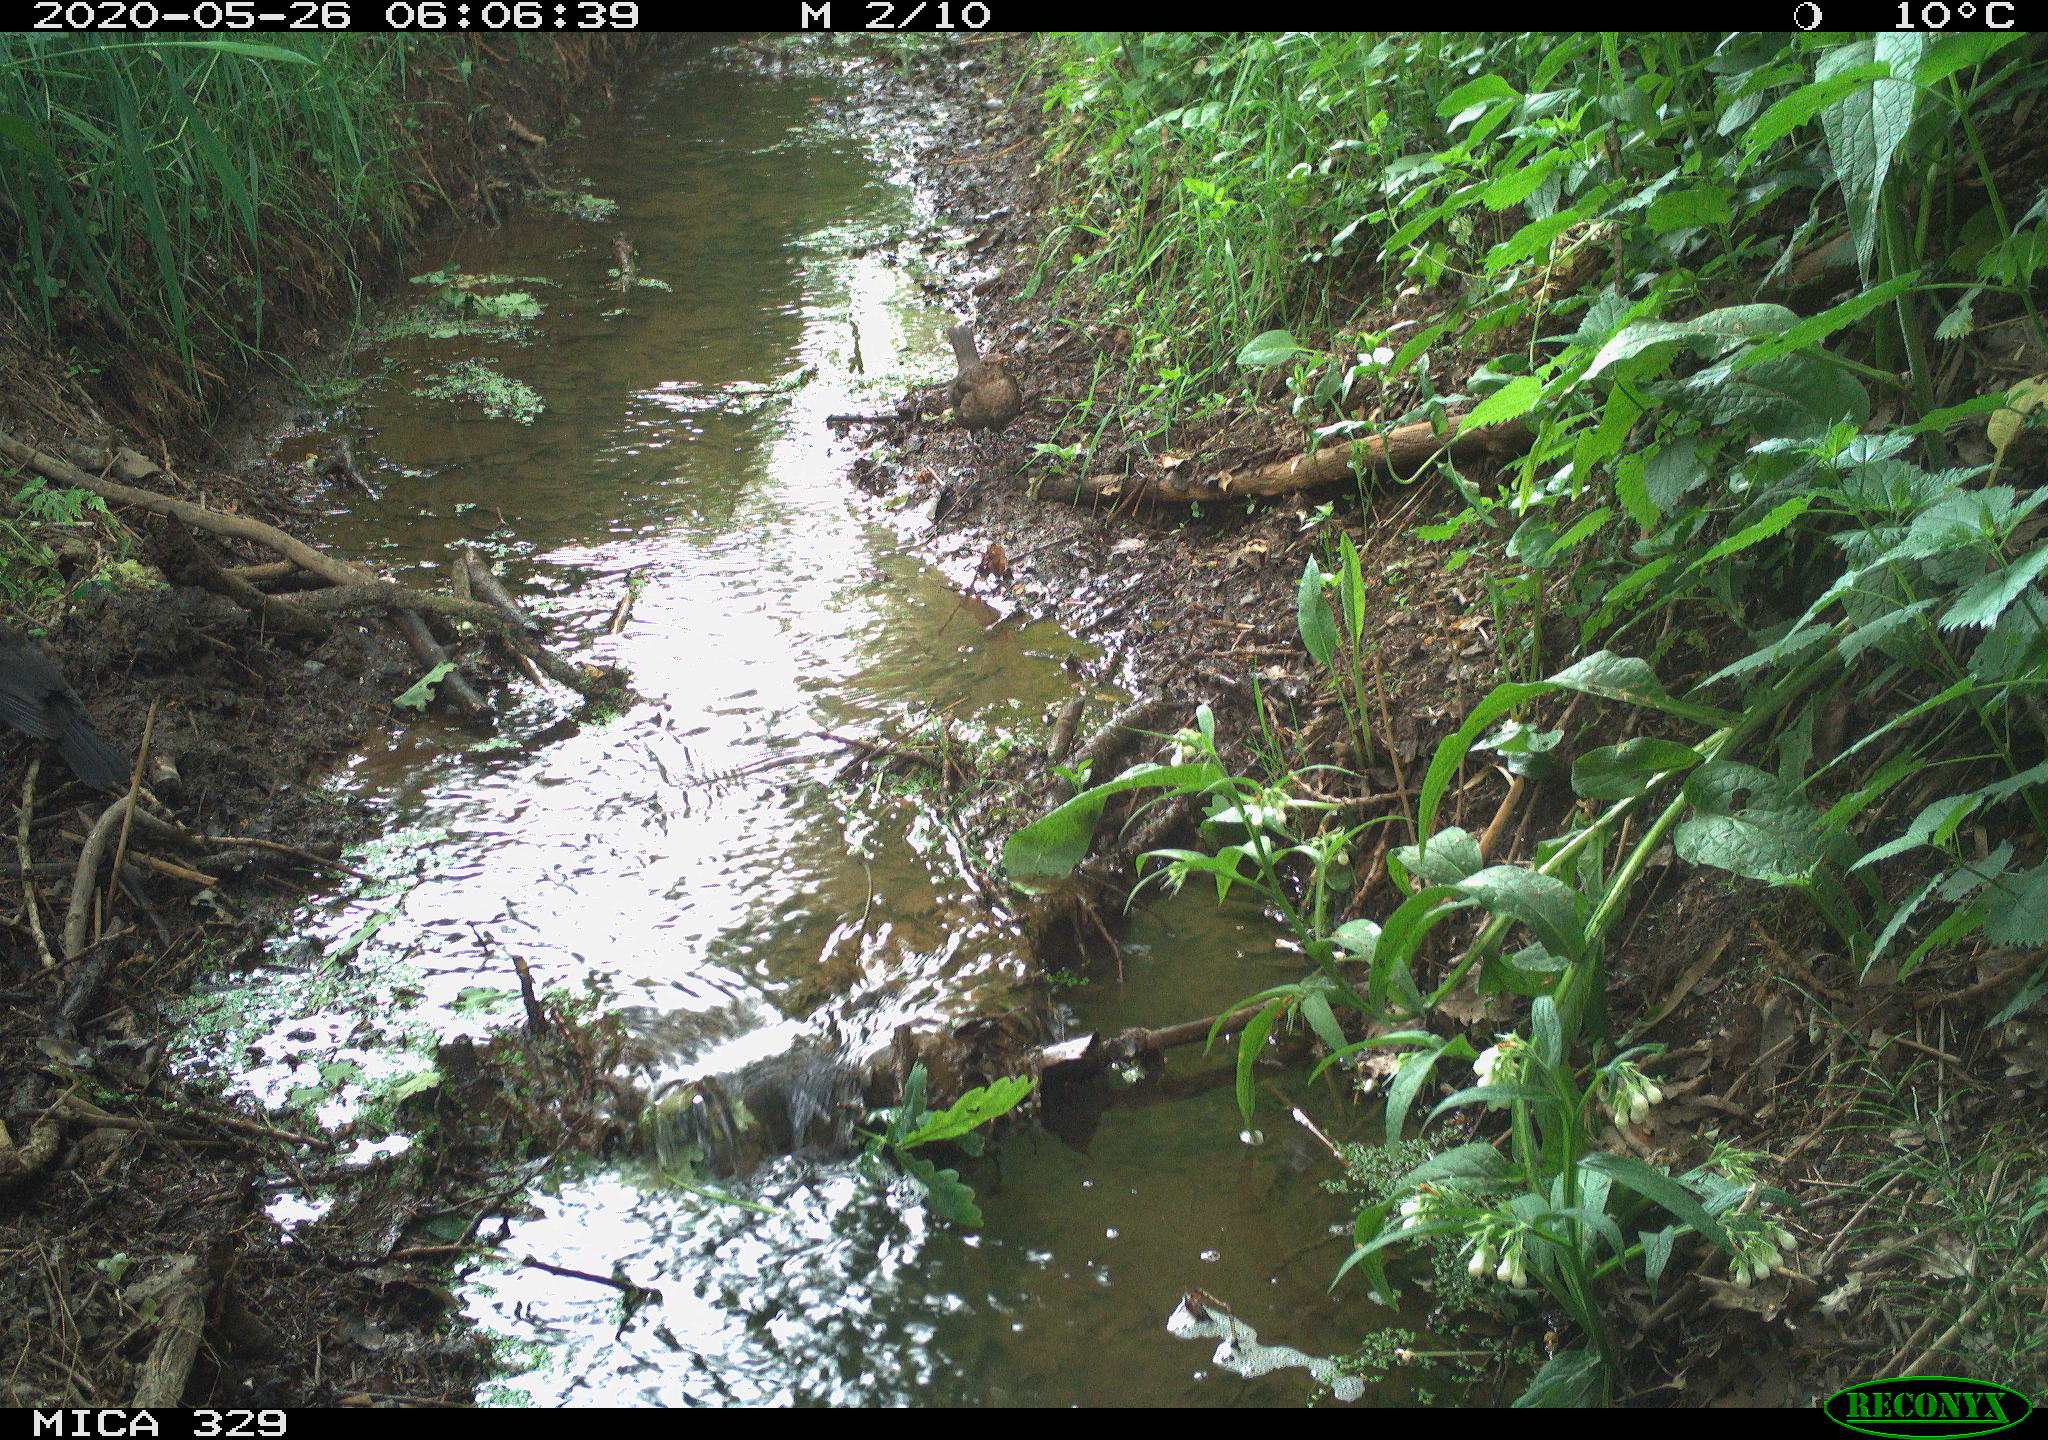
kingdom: Animalia
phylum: Chordata
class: Aves
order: Passeriformes
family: Turdidae
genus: Turdus
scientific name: Turdus merula
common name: Common blackbird
